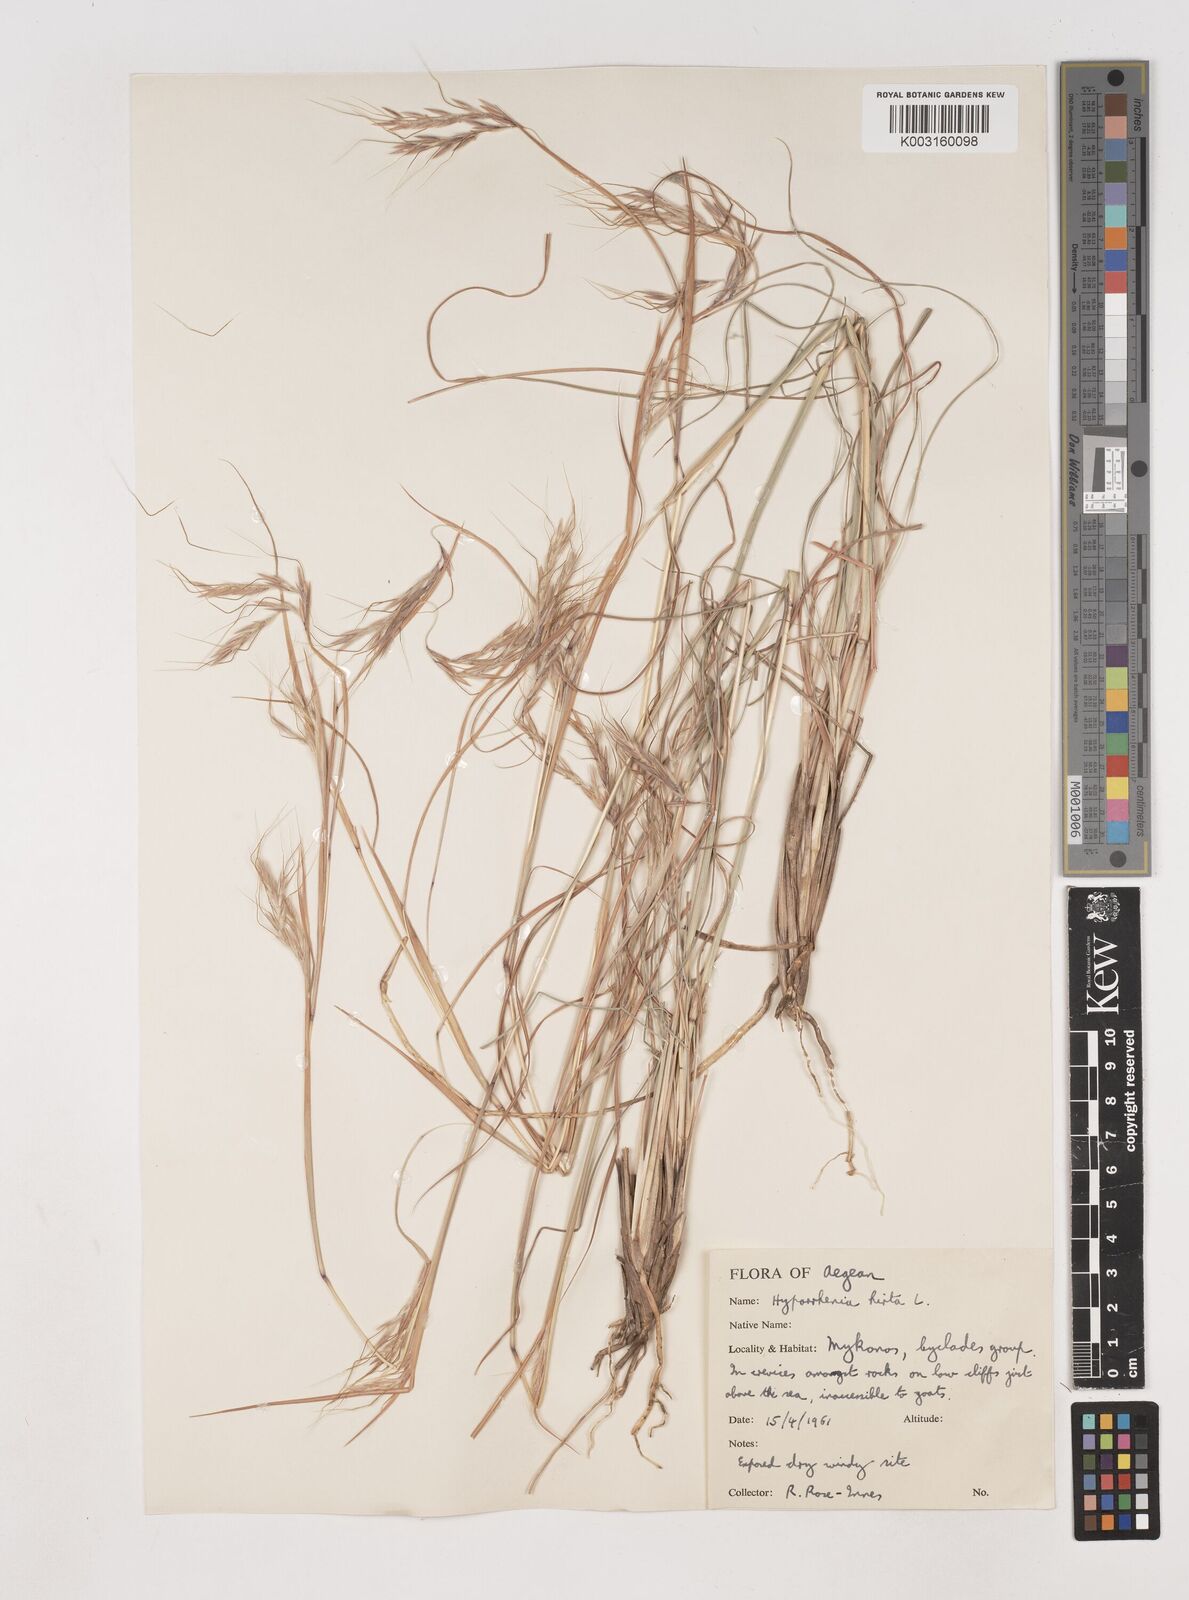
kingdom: Plantae
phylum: Tracheophyta
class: Liliopsida
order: Poales
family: Poaceae
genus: Hyparrhenia
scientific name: Hyparrhenia hirta
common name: Thatching grass
